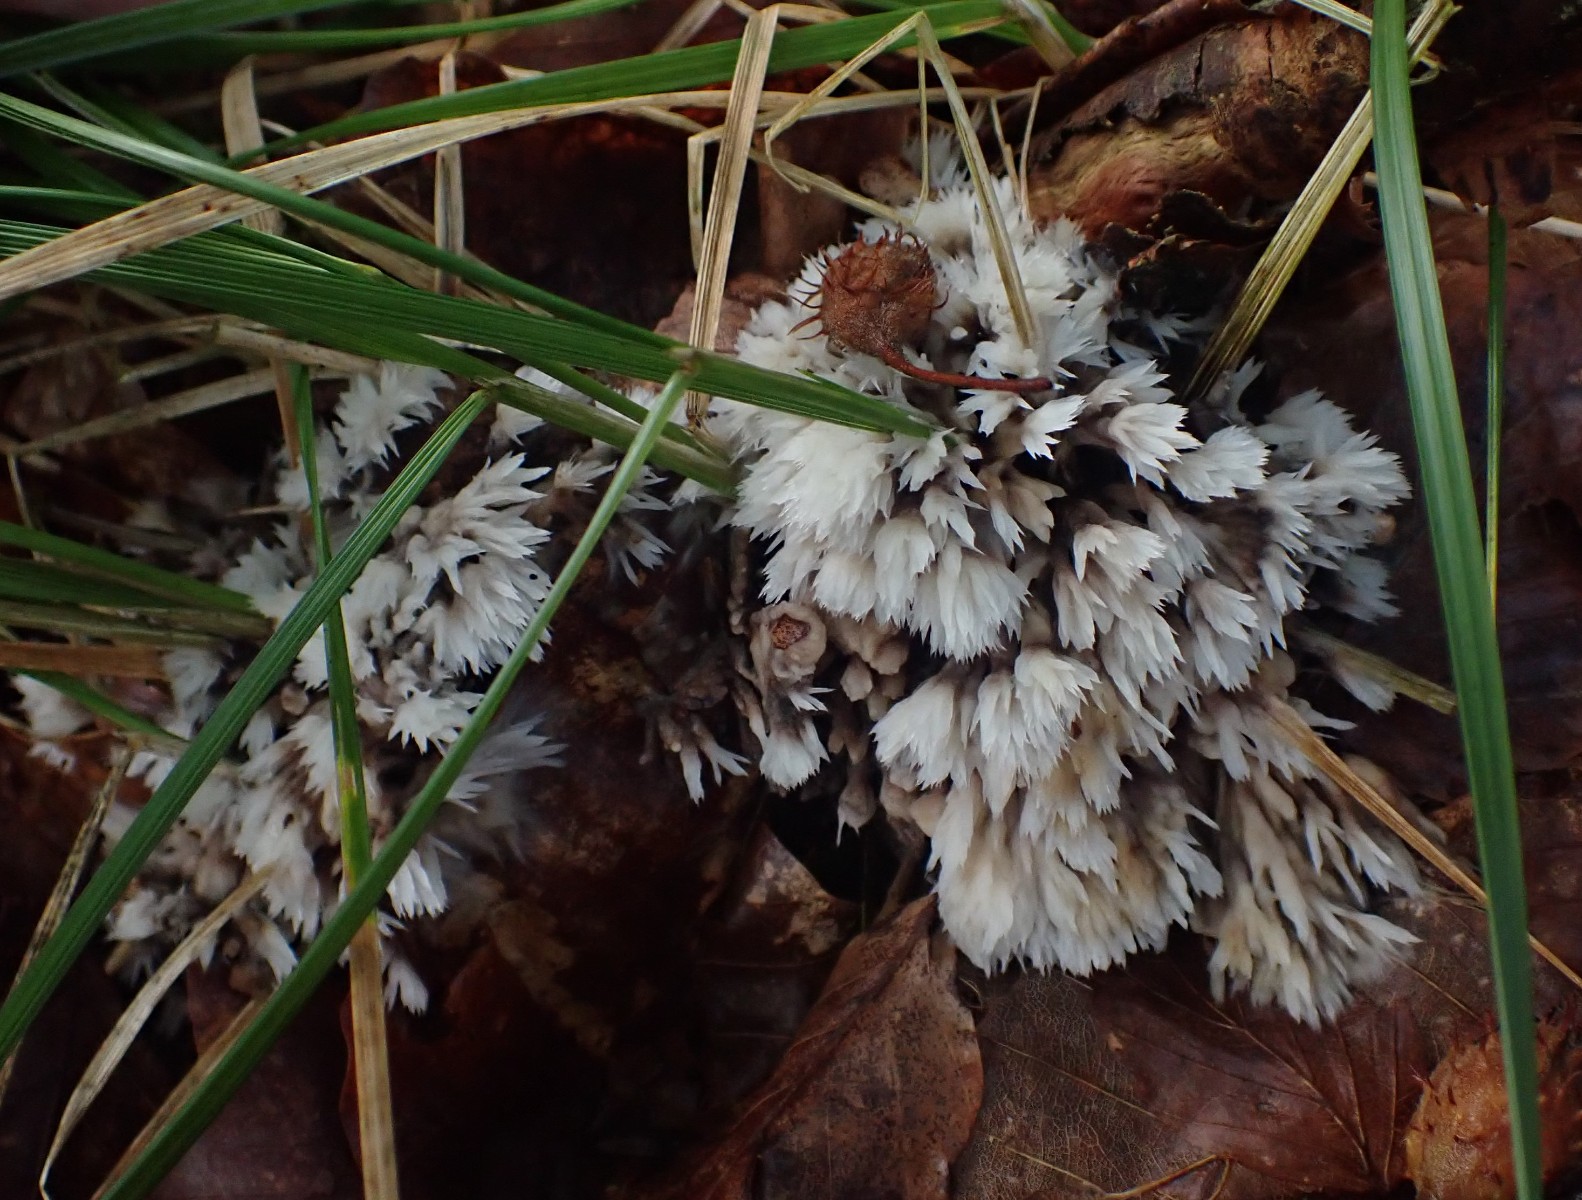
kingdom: Fungi
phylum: Basidiomycota
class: Agaricomycetes
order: Thelephorales
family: Thelephoraceae
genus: Thelephora
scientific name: Thelephora penicillata
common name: fladtrådt frynsesvamp
